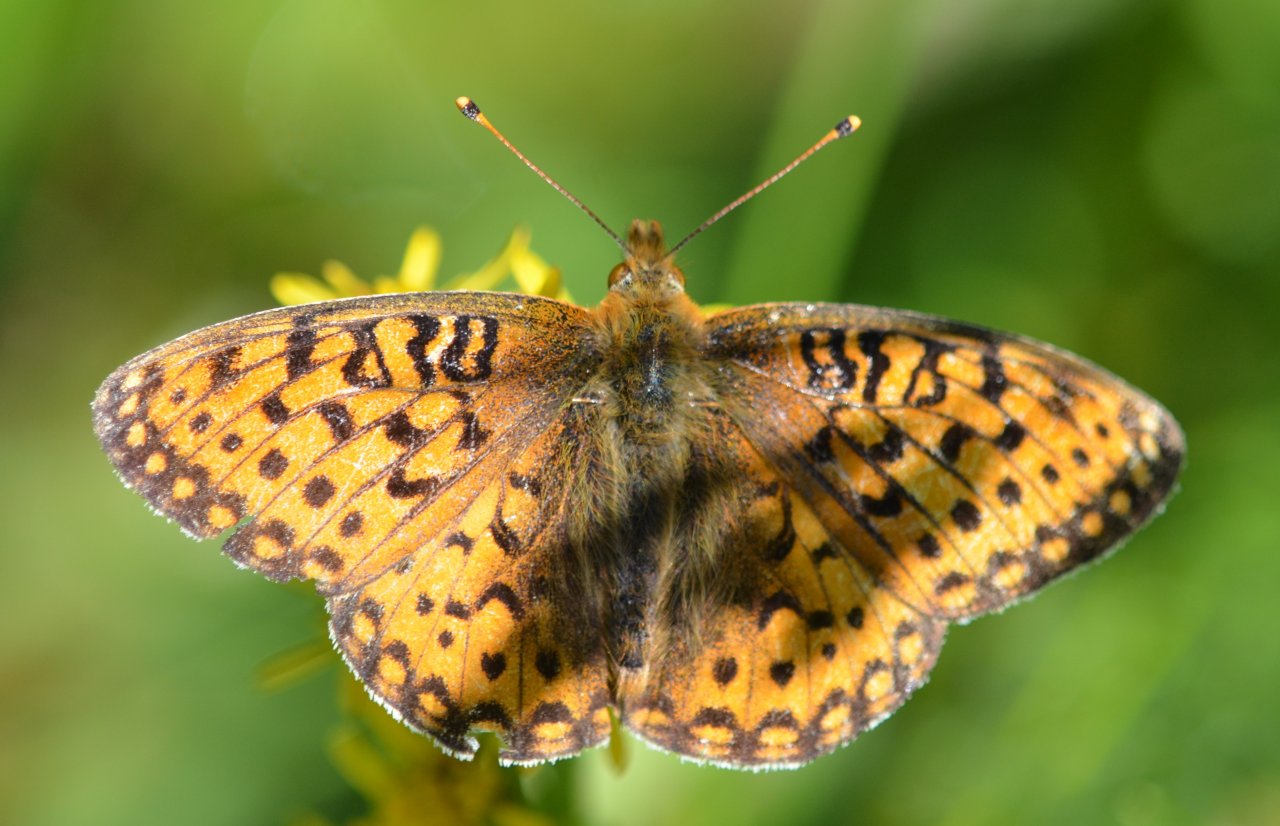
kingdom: Animalia
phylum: Arthropoda
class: Insecta
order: Lepidoptera
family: Nymphalidae
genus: Speyeria
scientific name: Speyeria mormonia
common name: Mormon Fritillary
